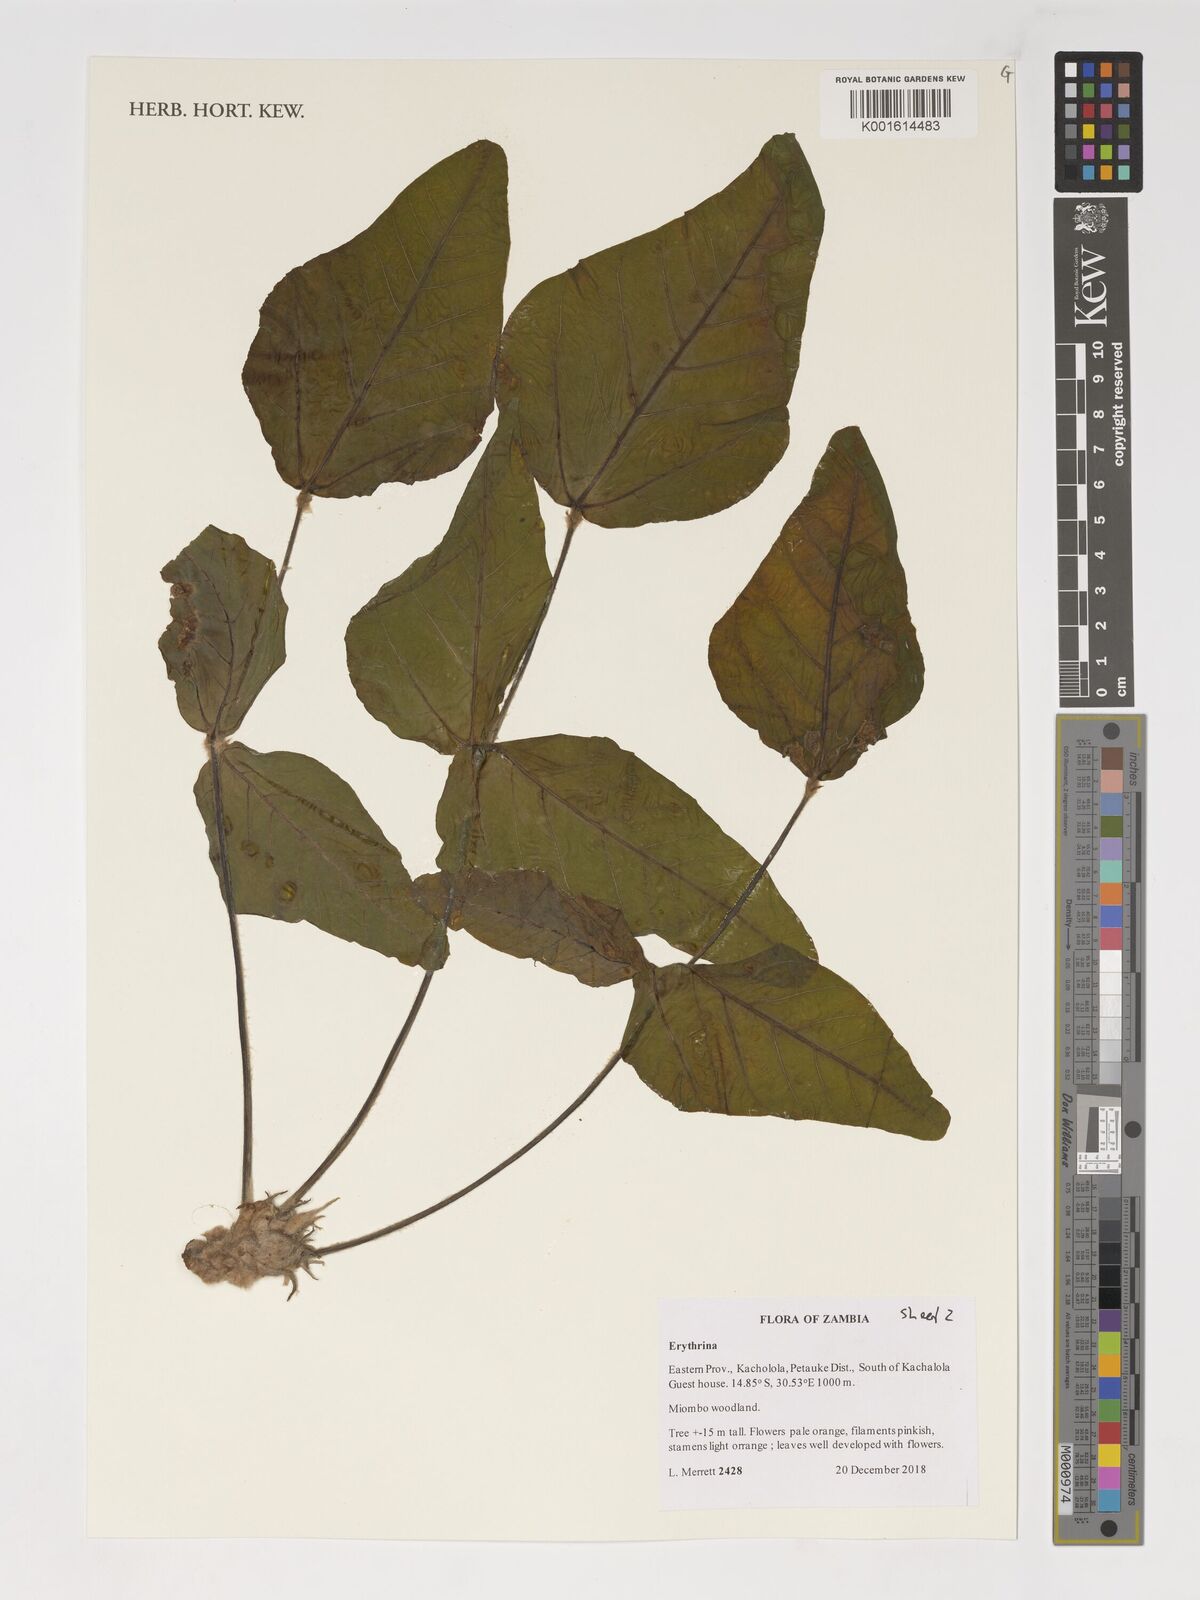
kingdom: Plantae
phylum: Tracheophyta
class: Magnoliopsida
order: Fabales
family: Fabaceae
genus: Erythrina
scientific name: Erythrina latissima
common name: Broad-leaved coral tree
